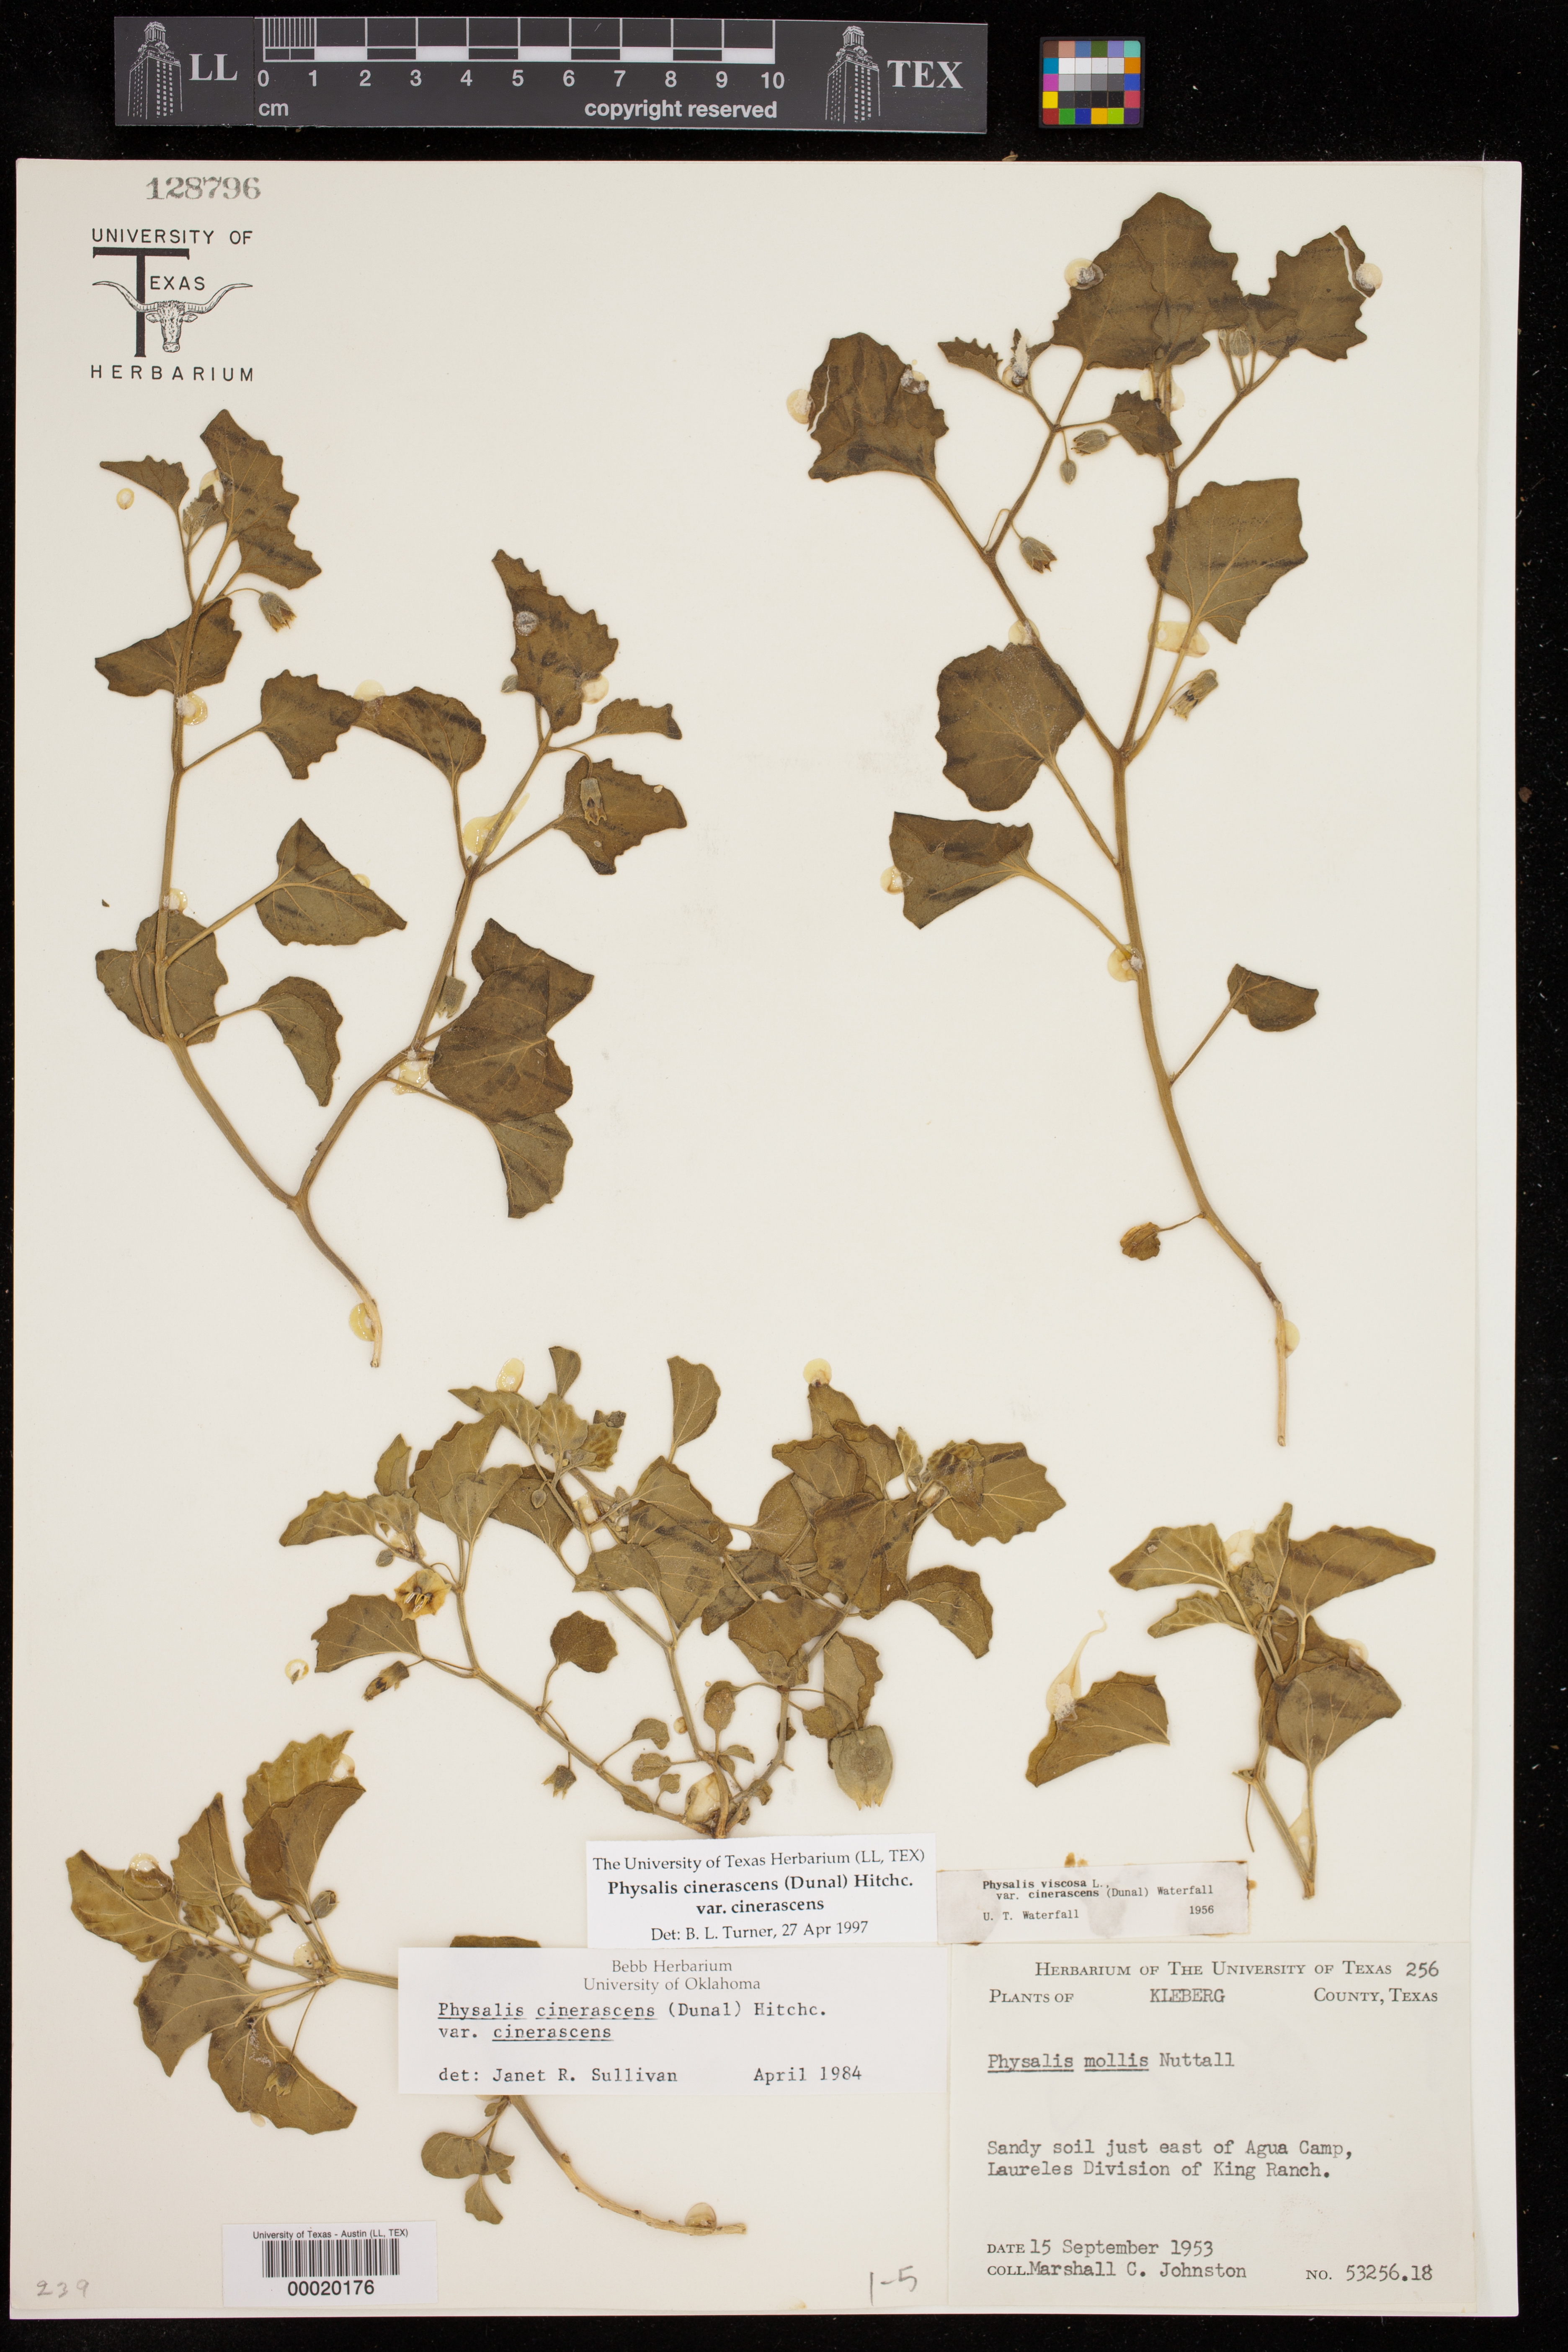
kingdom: Plantae
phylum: Tracheophyta
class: Magnoliopsida
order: Solanales
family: Solanaceae
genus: Physalis
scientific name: Physalis cinerascens
